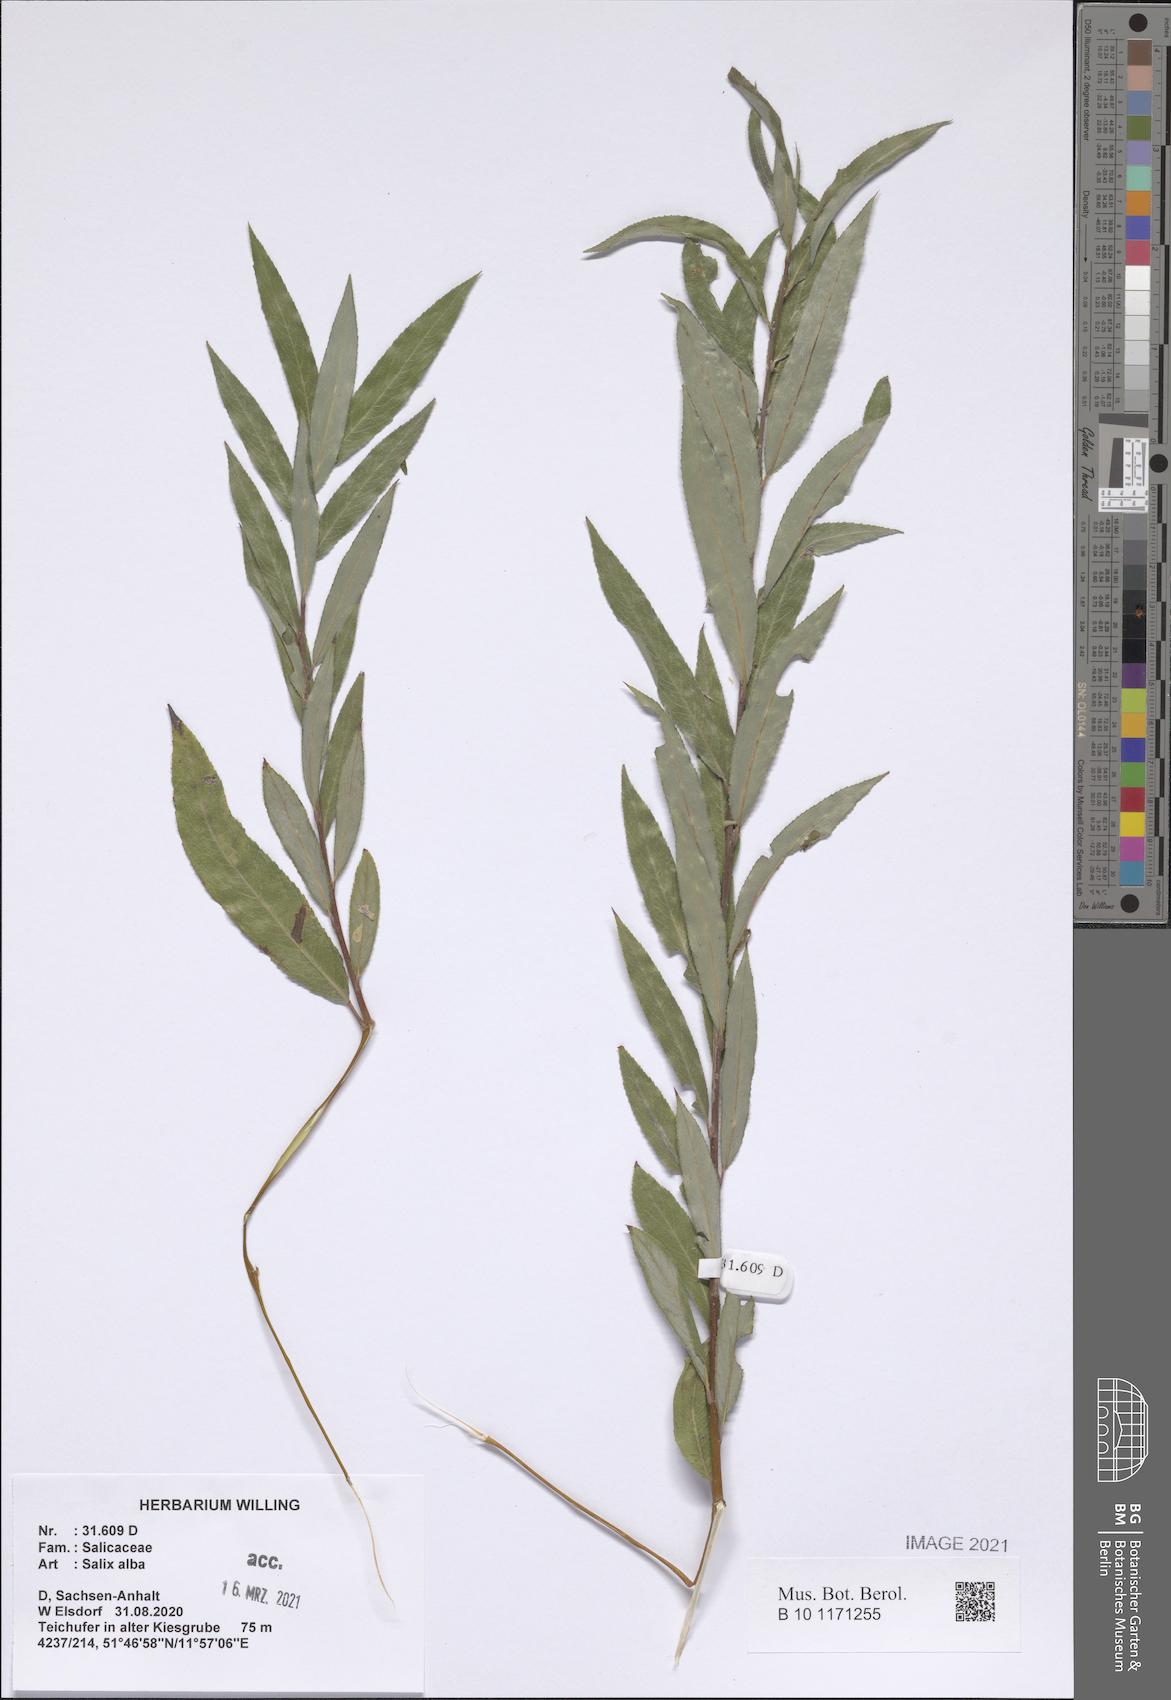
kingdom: Plantae
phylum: Tracheophyta
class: Magnoliopsida
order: Malpighiales
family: Salicaceae
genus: Salix
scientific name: Salix alba
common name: White willow
